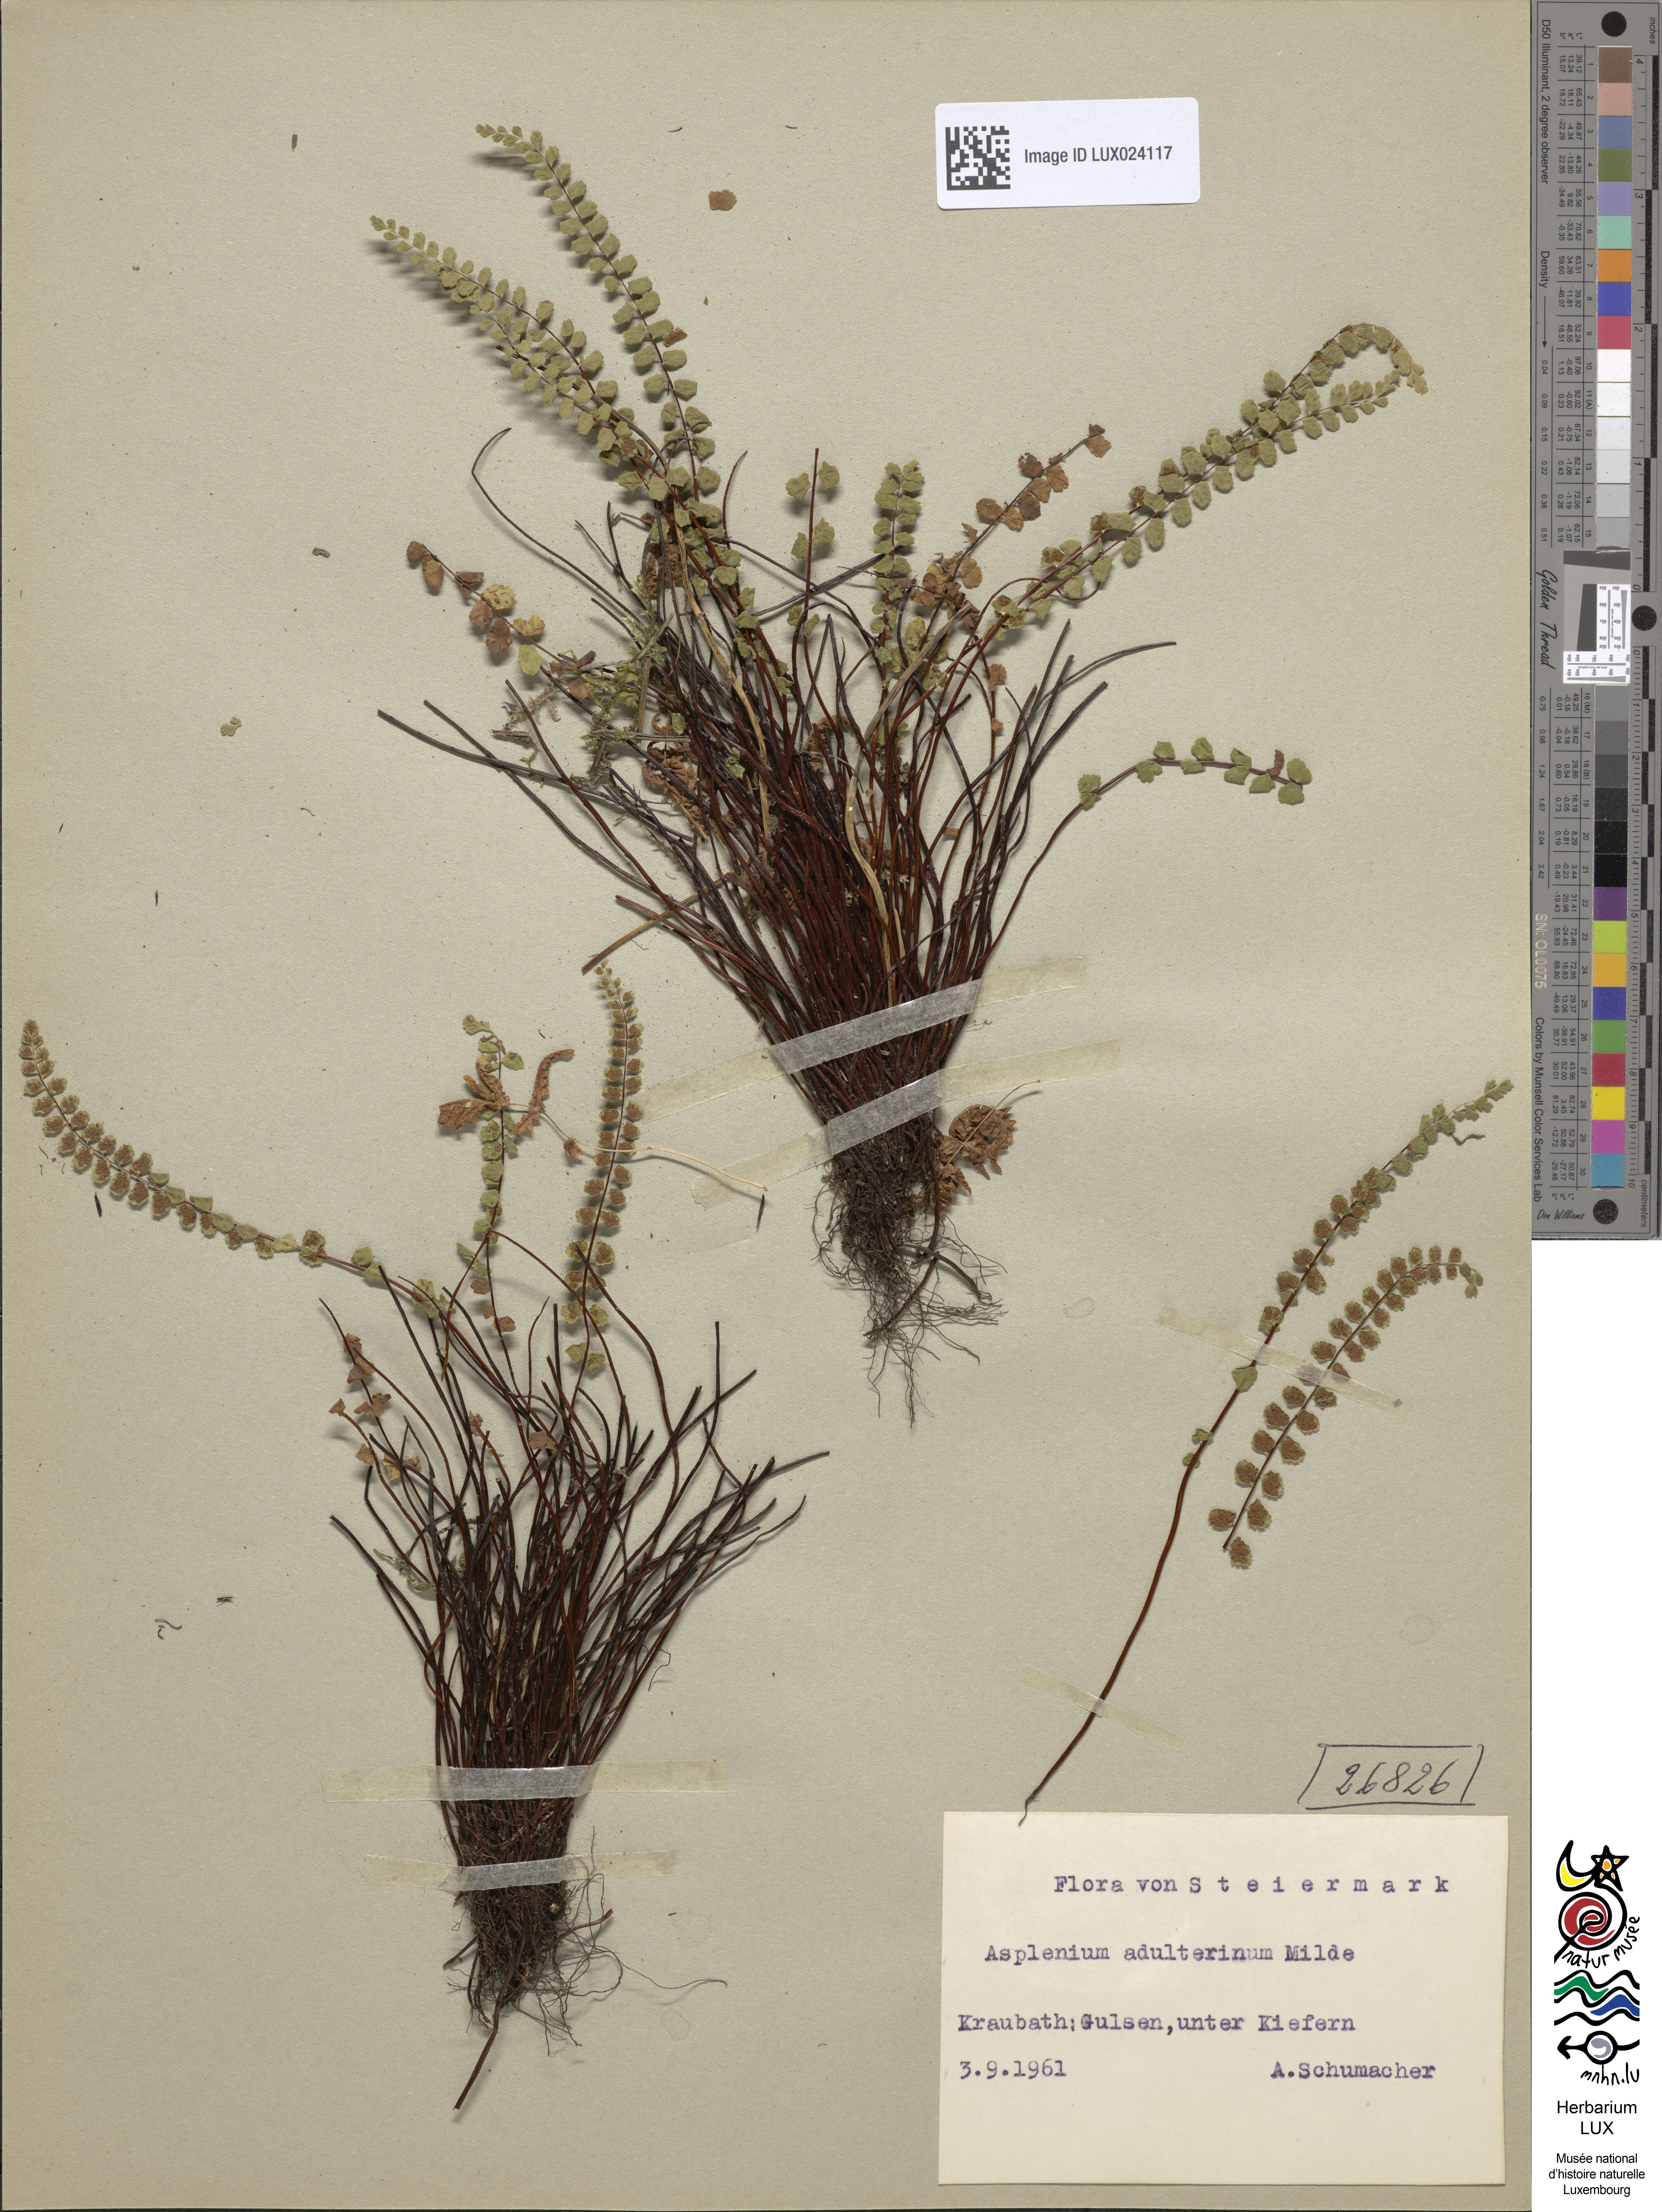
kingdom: Plantae
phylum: Tracheophyta
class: Polypodiopsida
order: Polypodiales
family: Aspleniaceae
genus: Asplenium
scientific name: Asplenium adulterinum
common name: Adulterated spleenwort
